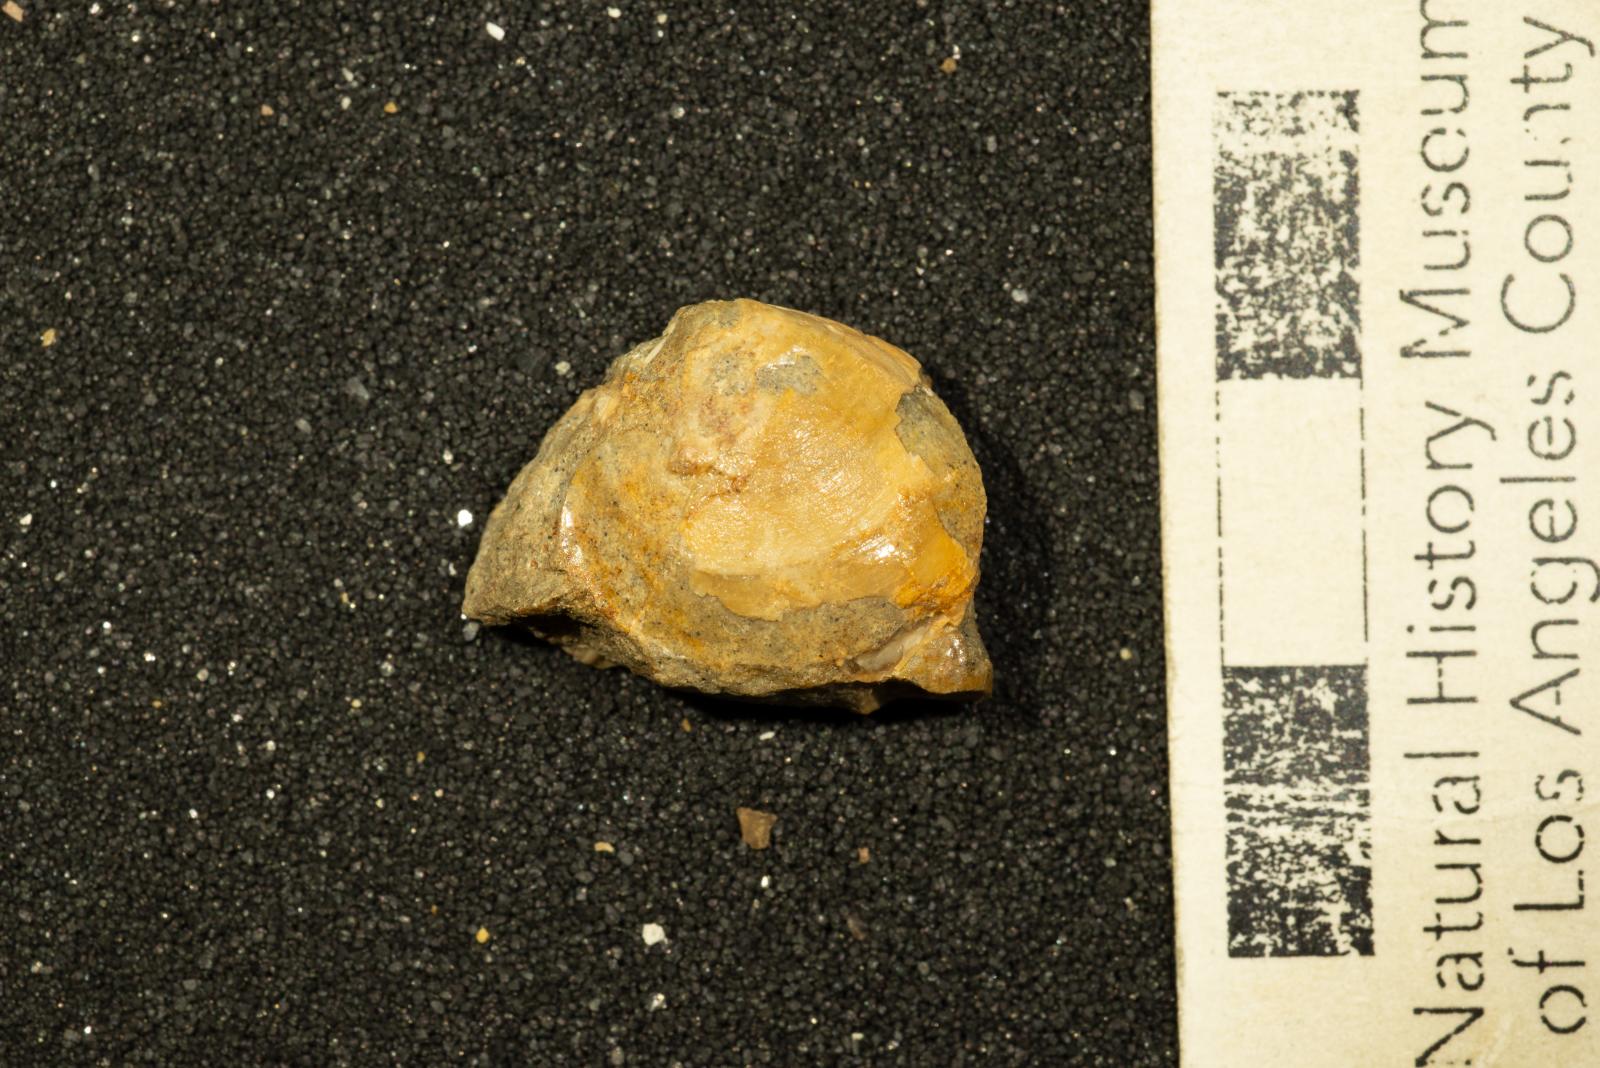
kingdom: Animalia
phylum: Mollusca
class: Bivalvia
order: Venerida
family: Ungulinidae
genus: Diplodonta
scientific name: Diplodonta davisi
